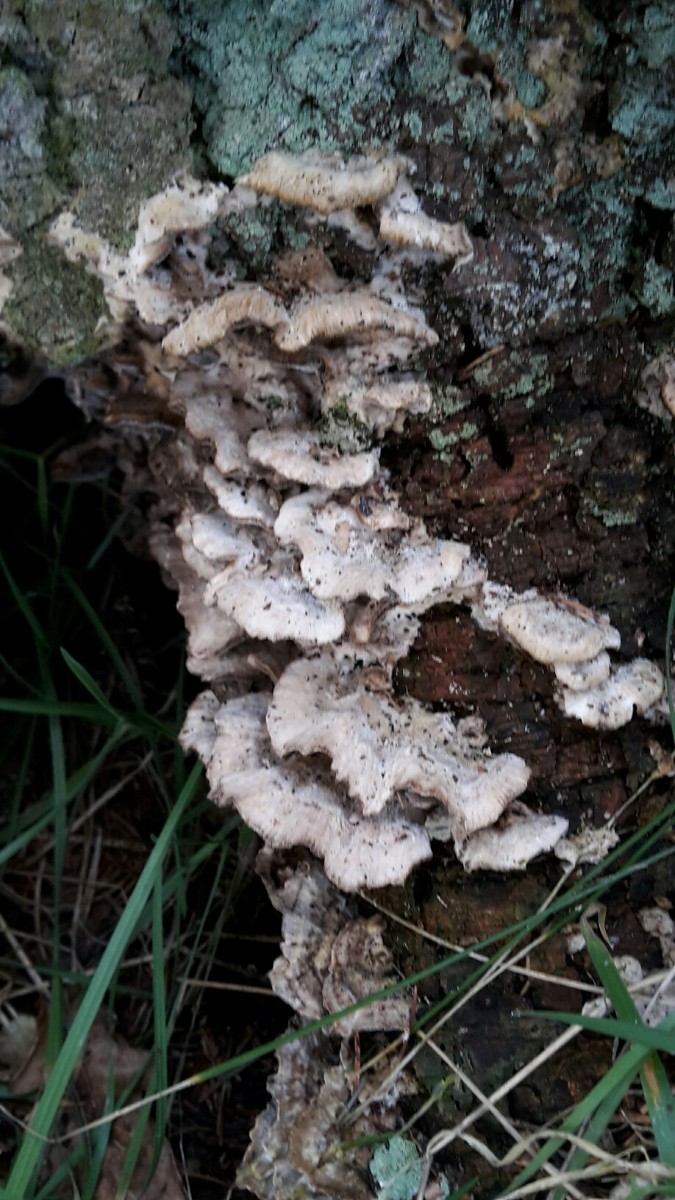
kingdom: Fungi
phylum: Basidiomycota
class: Agaricomycetes
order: Polyporales
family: Phanerochaetaceae
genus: Bjerkandera
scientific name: Bjerkandera adusta
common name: sveden sodporesvamp
